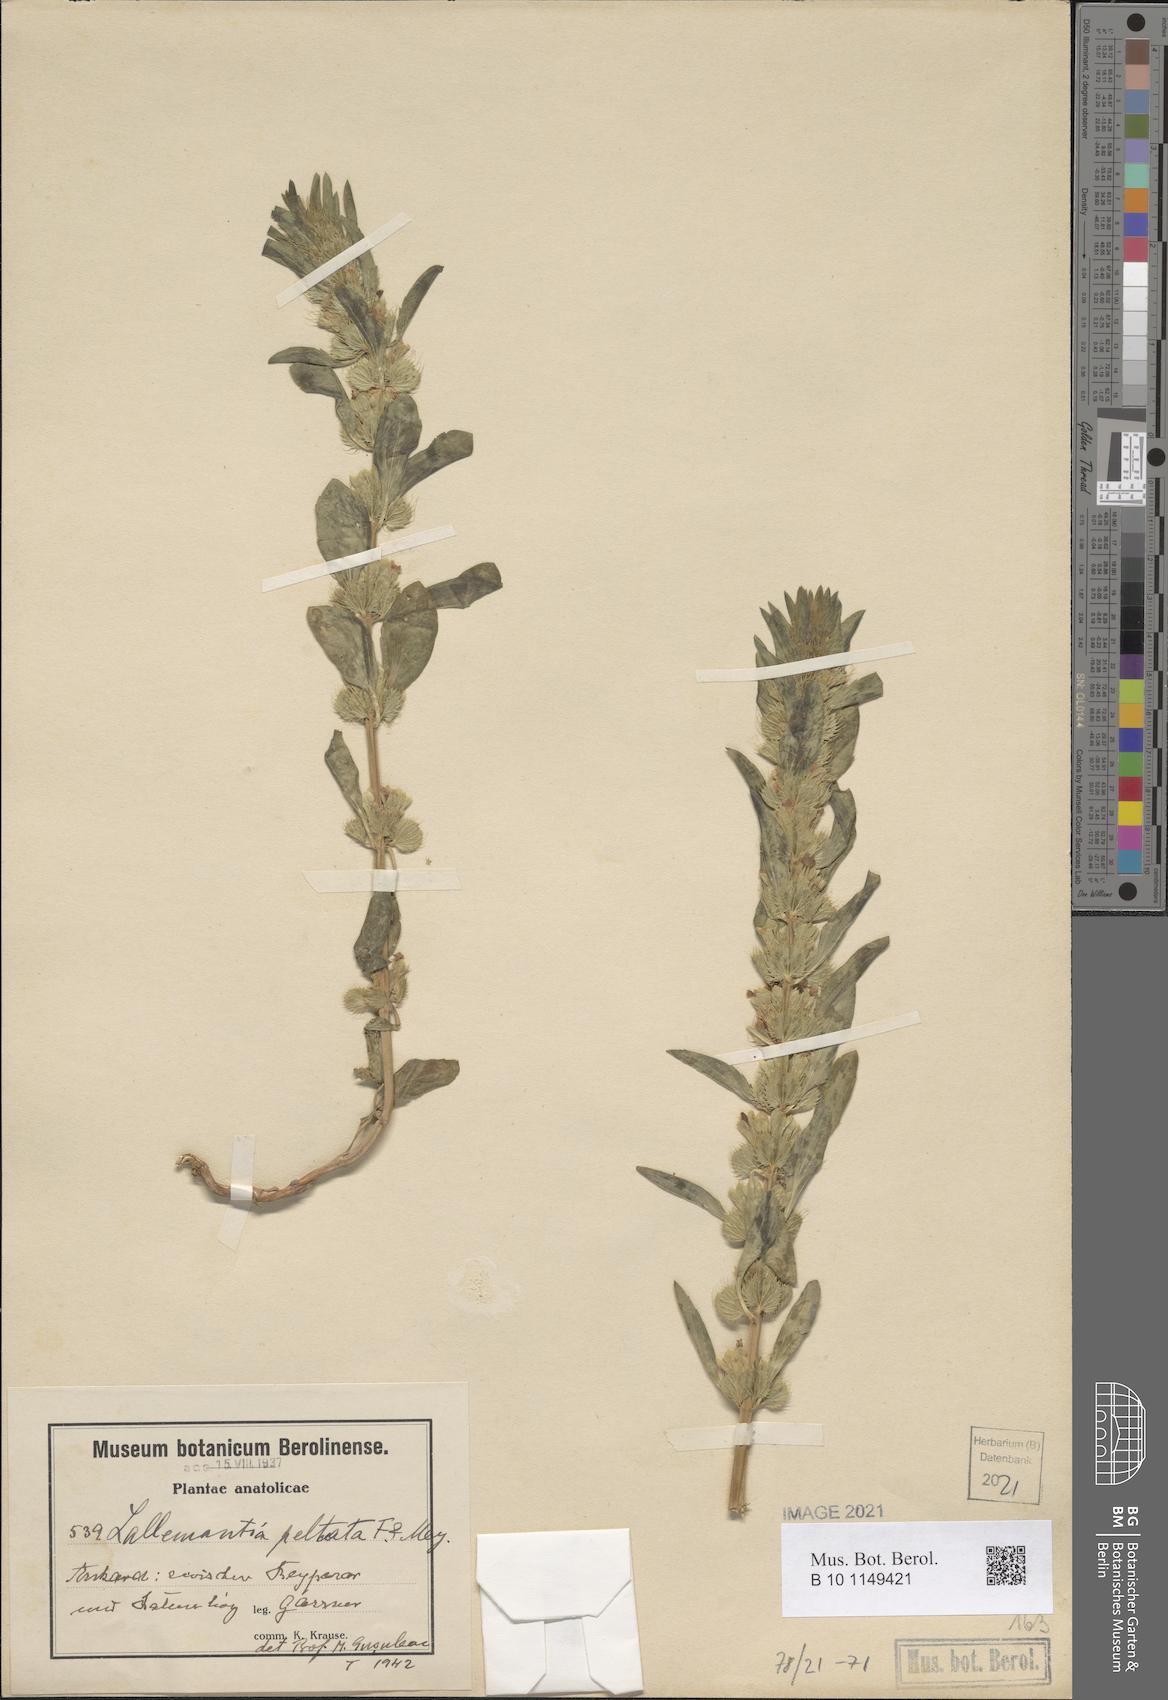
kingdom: Plantae
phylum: Tracheophyta
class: Magnoliopsida
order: Lamiales
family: Lamiaceae
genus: Lallemantia
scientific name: Lallemantia peltata
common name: Lion's heart
